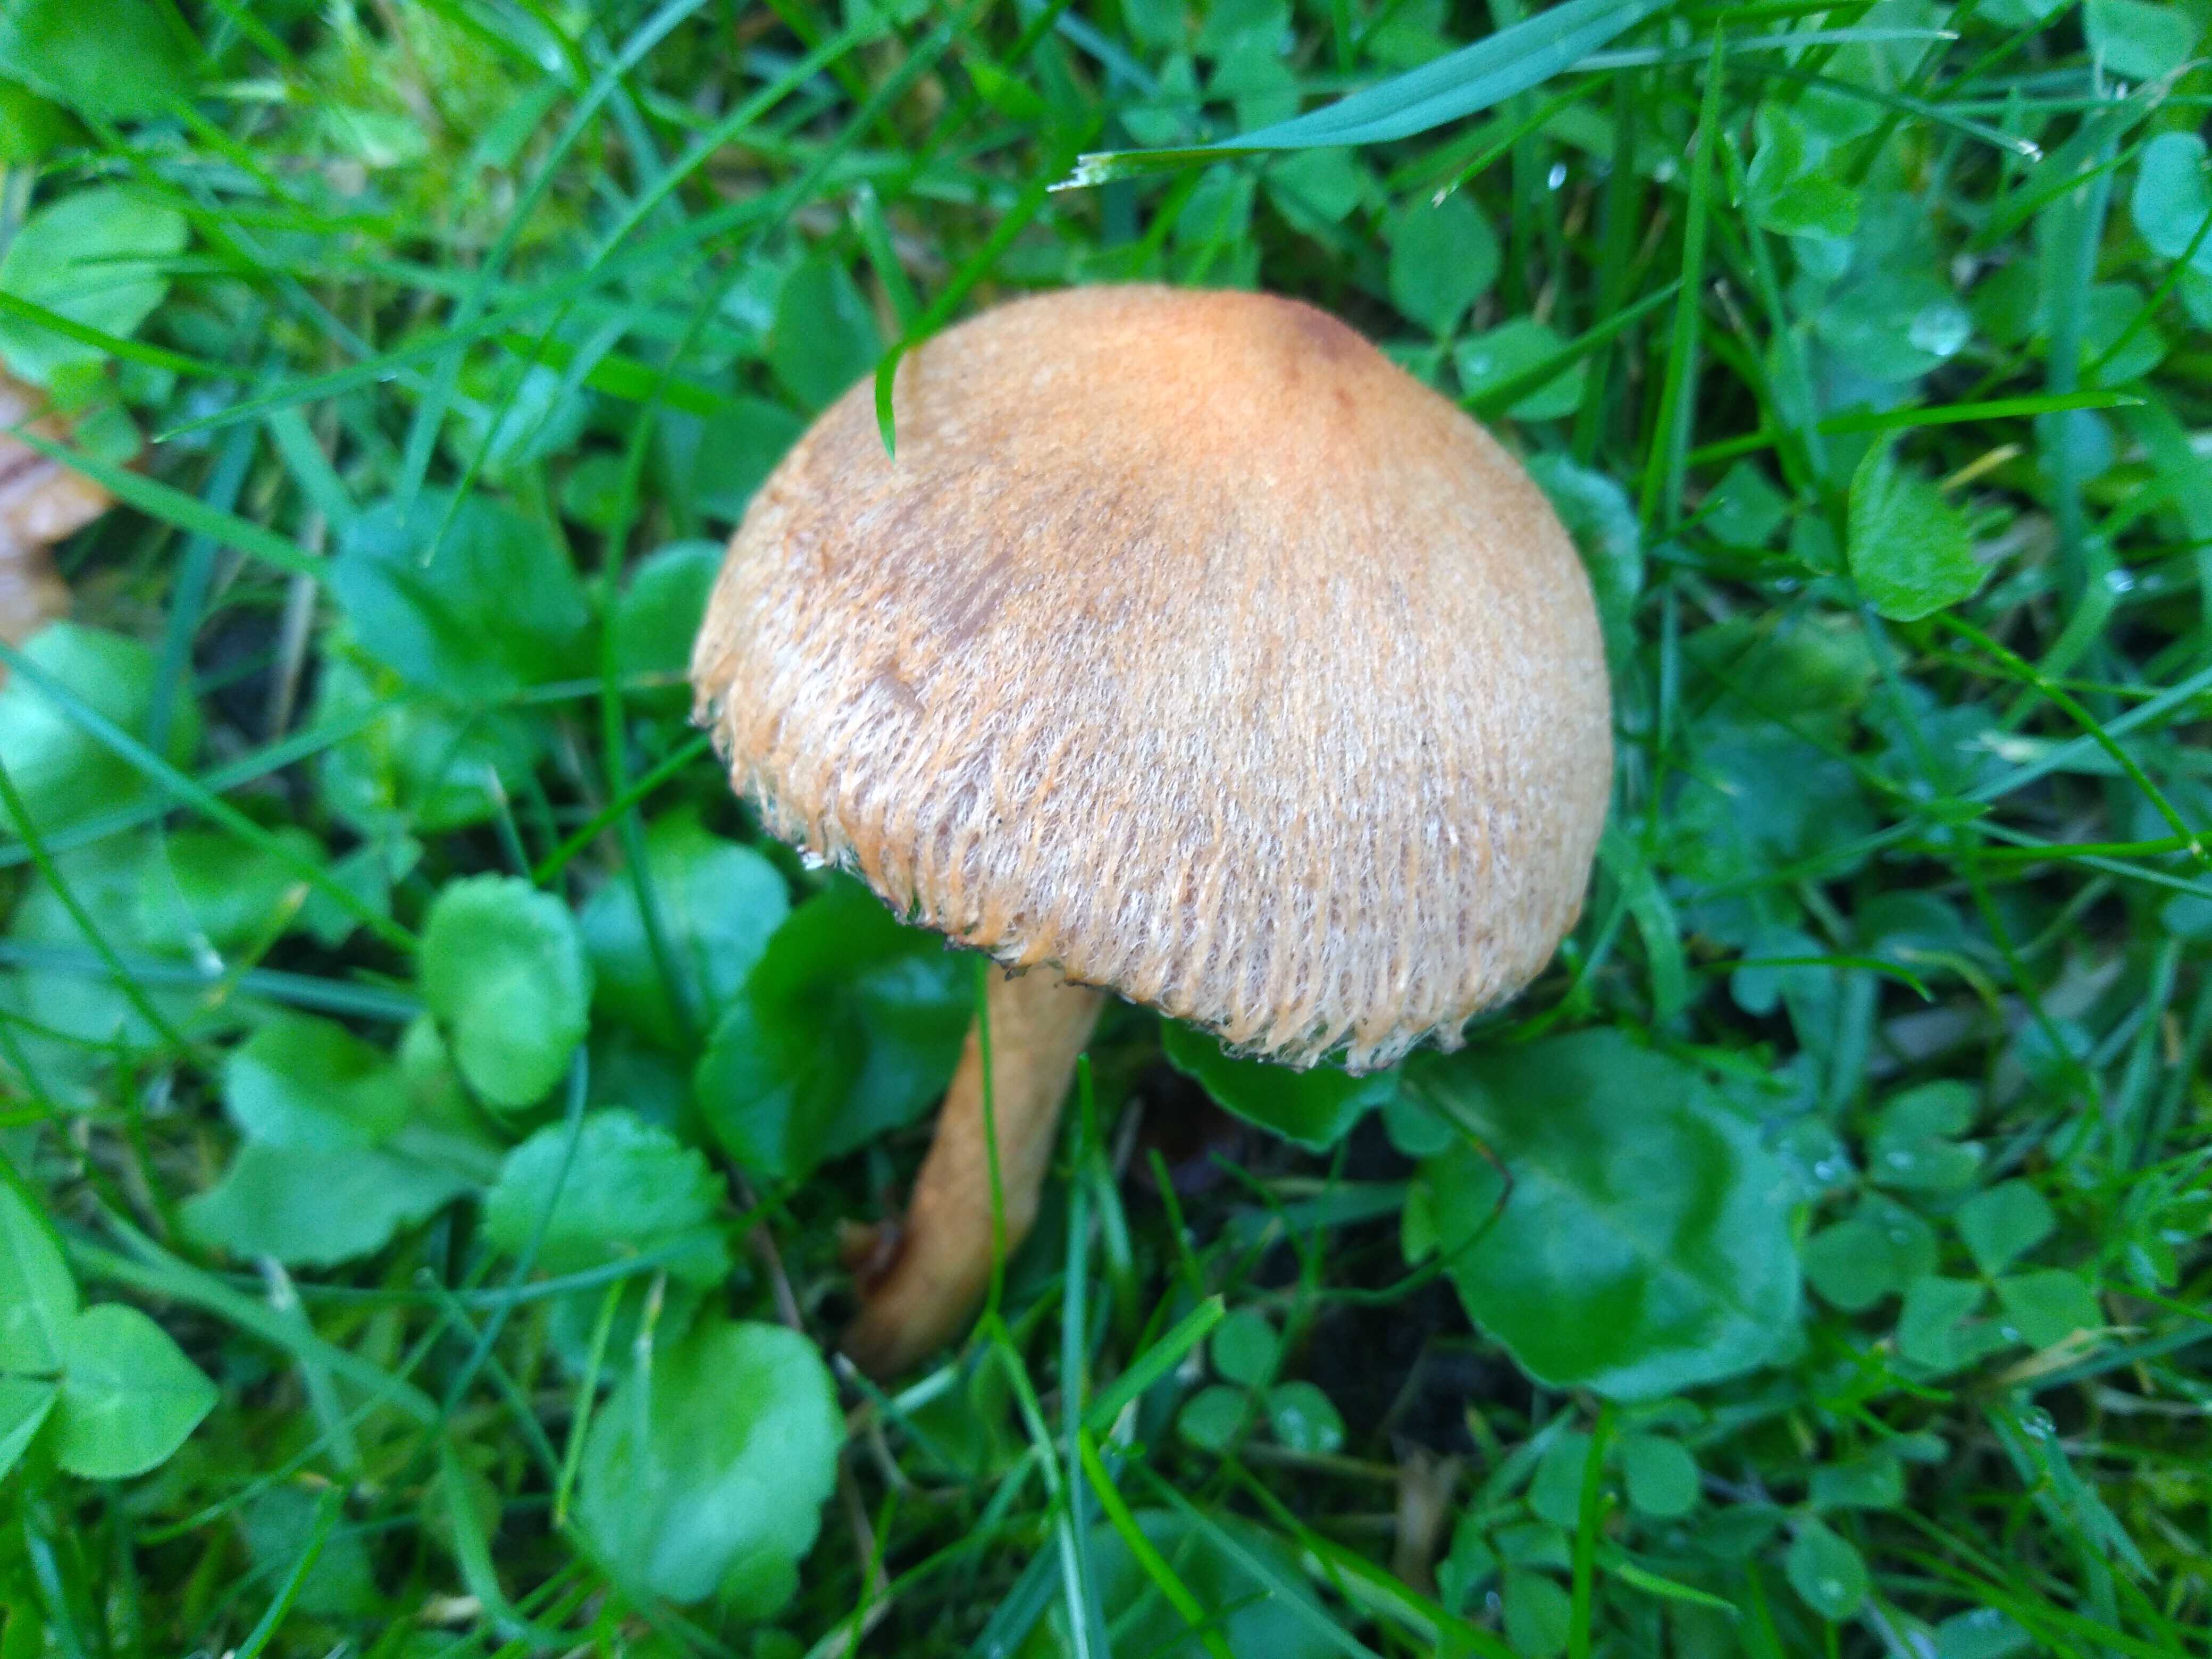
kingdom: Fungi
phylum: Basidiomycota
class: Agaricomycetes
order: Agaricales
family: Psathyrellaceae
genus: Lacrymaria
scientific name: Lacrymaria pyrotricha
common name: ildhåret mørkhat
